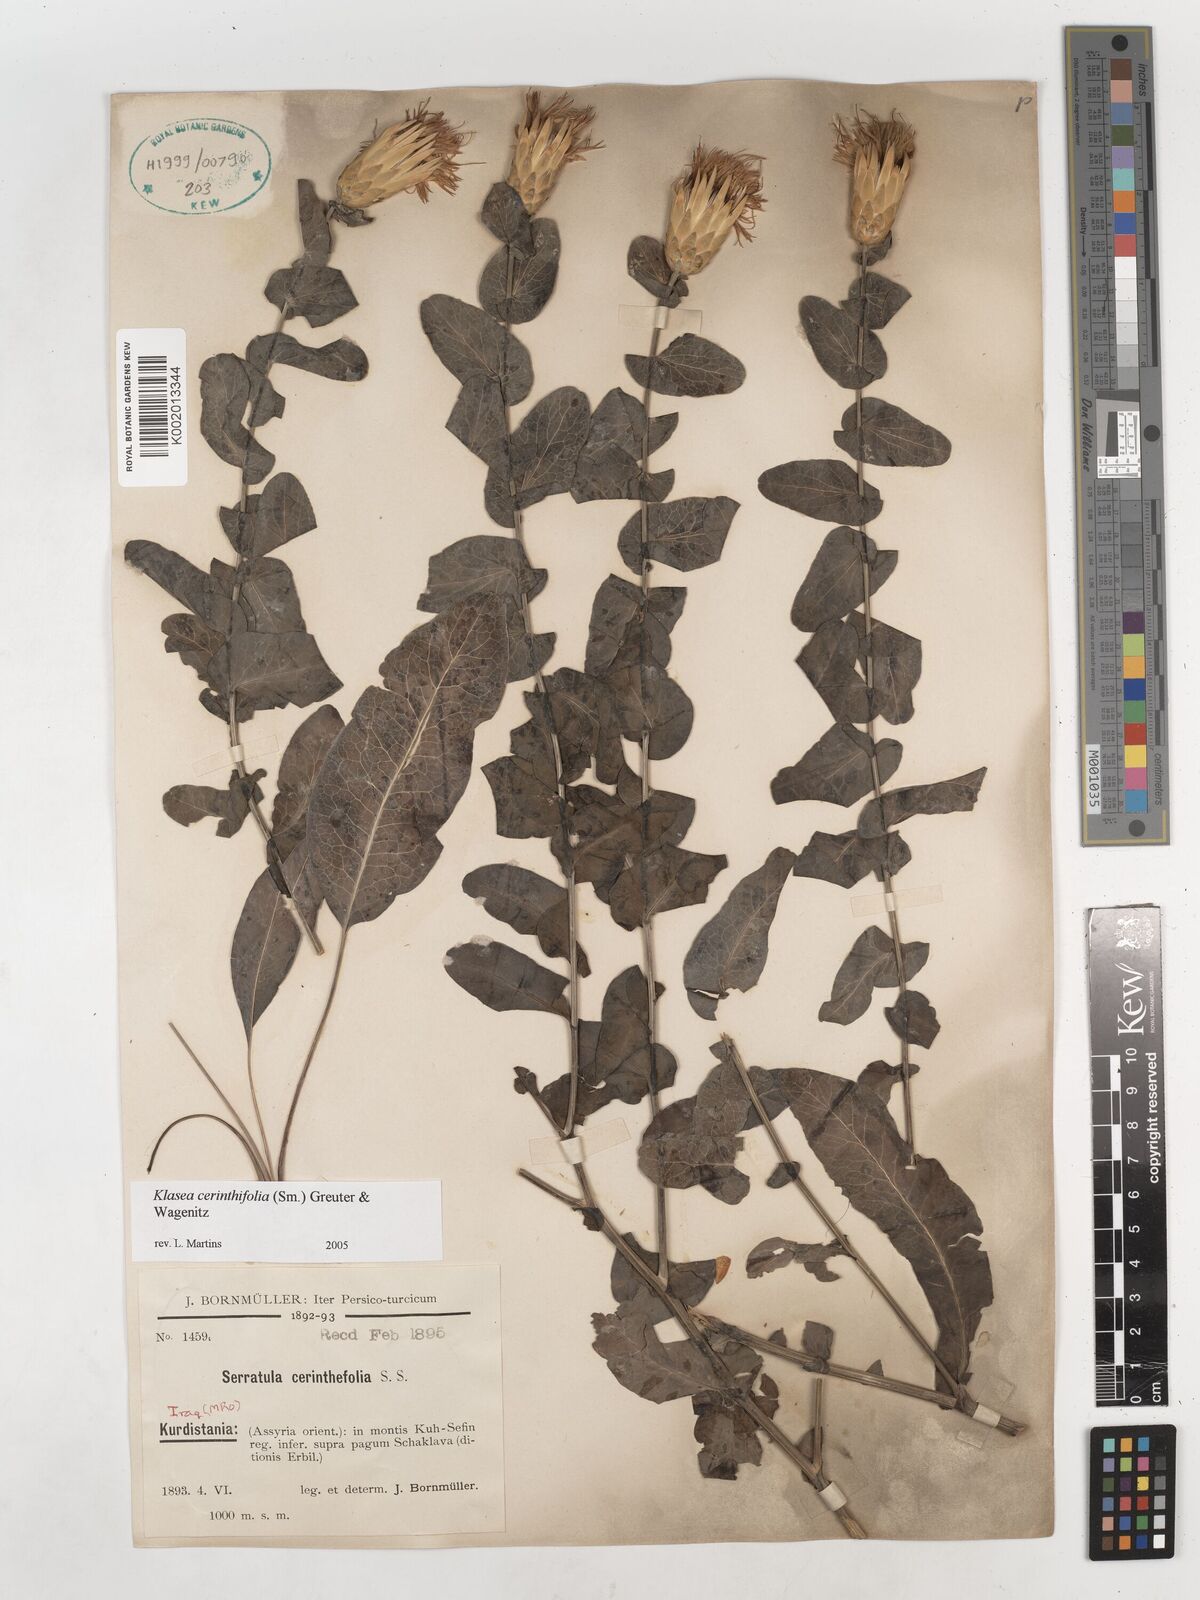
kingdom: Plantae
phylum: Tracheophyta
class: Magnoliopsida
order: Asterales
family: Asteraceae
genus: Klasea
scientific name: Klasea cerinthifolia
